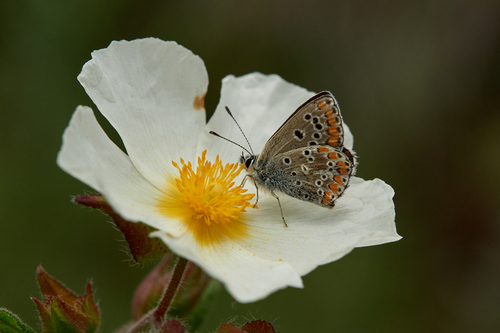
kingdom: Animalia
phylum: Arthropoda
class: Insecta
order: Lepidoptera
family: Lycaenidae
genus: Aricia
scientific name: Aricia cramera
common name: Eschscholtz´s brown  argus
